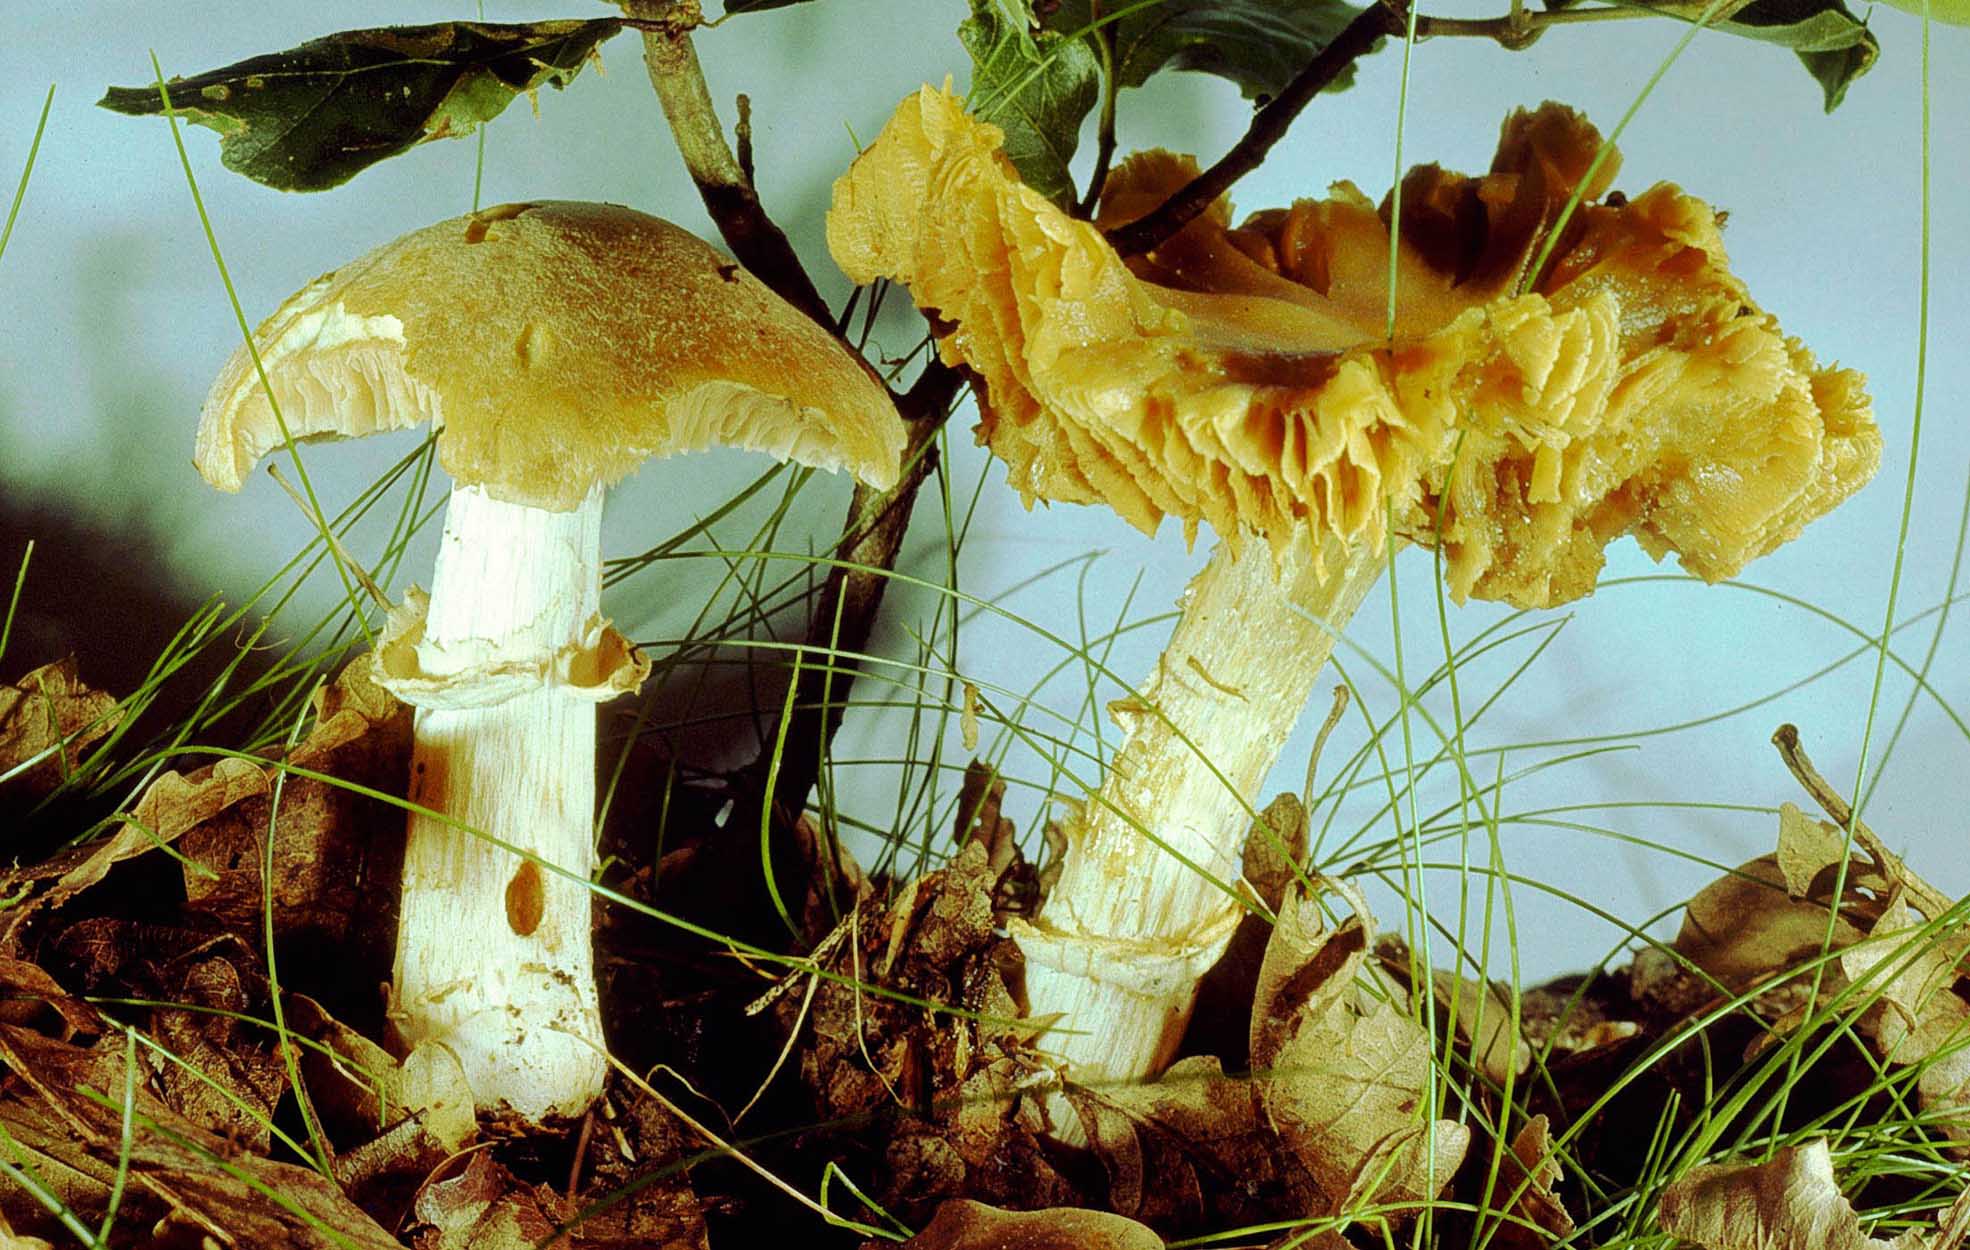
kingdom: Fungi
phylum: Basidiomycota
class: Agaricomycetes
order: Agaricales
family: Cortinariaceae
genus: Cortinarius
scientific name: Cortinarius caperatus
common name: klidhat
